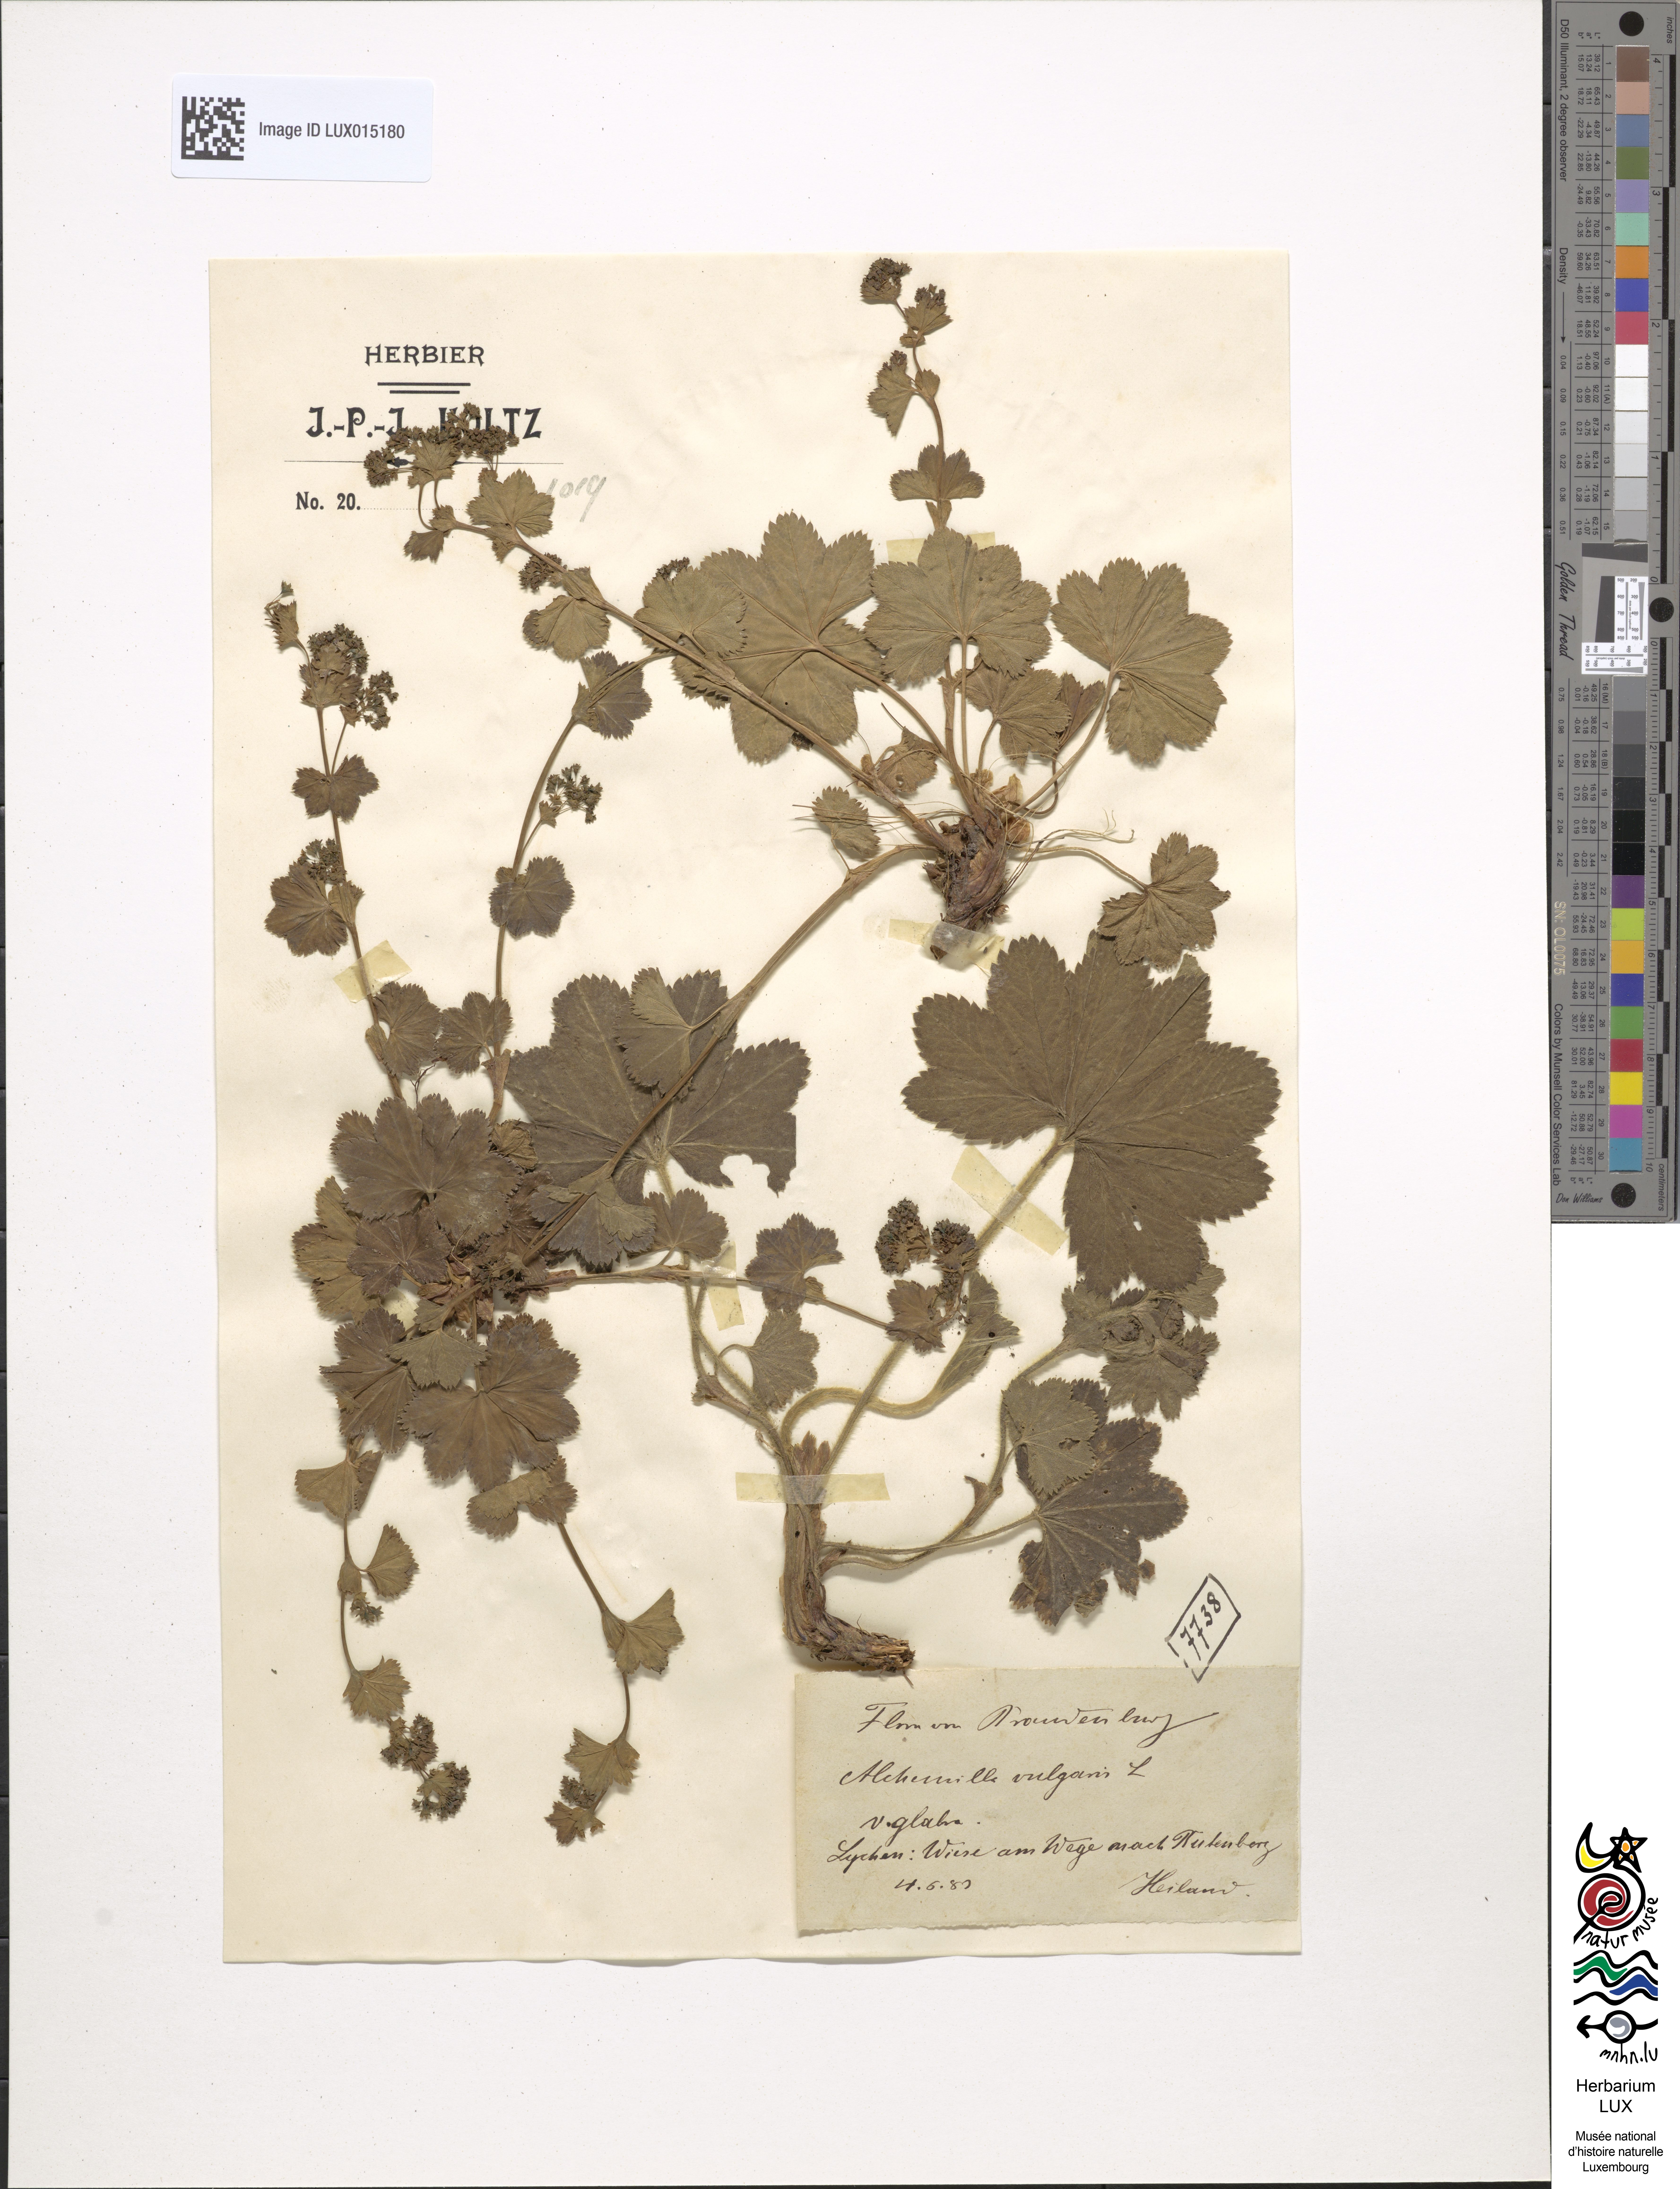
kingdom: Plantae
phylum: Tracheophyta
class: Magnoliopsida
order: Rosales
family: Rosaceae
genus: Alchemilla
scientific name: Alchemilla
